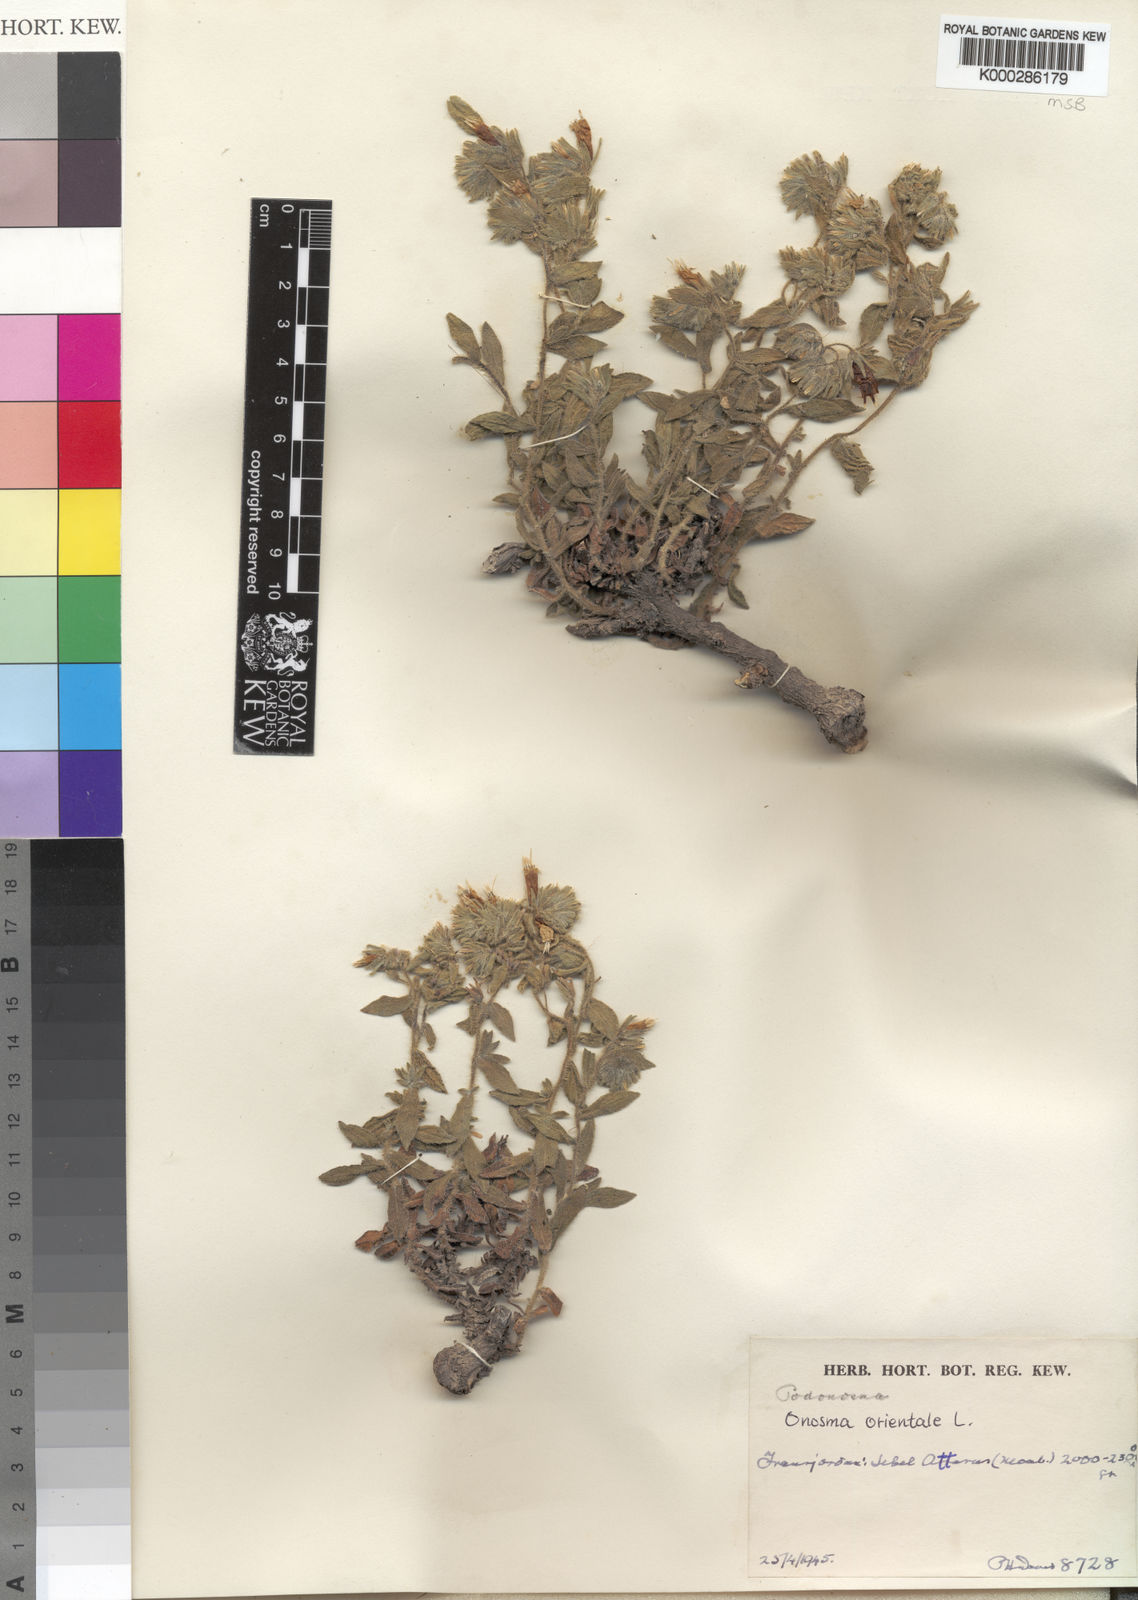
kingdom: Plantae
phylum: Tracheophyta
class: Magnoliopsida
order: Boraginales
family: Boraginaceae
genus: Podonosma
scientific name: Podonosma orientalis
